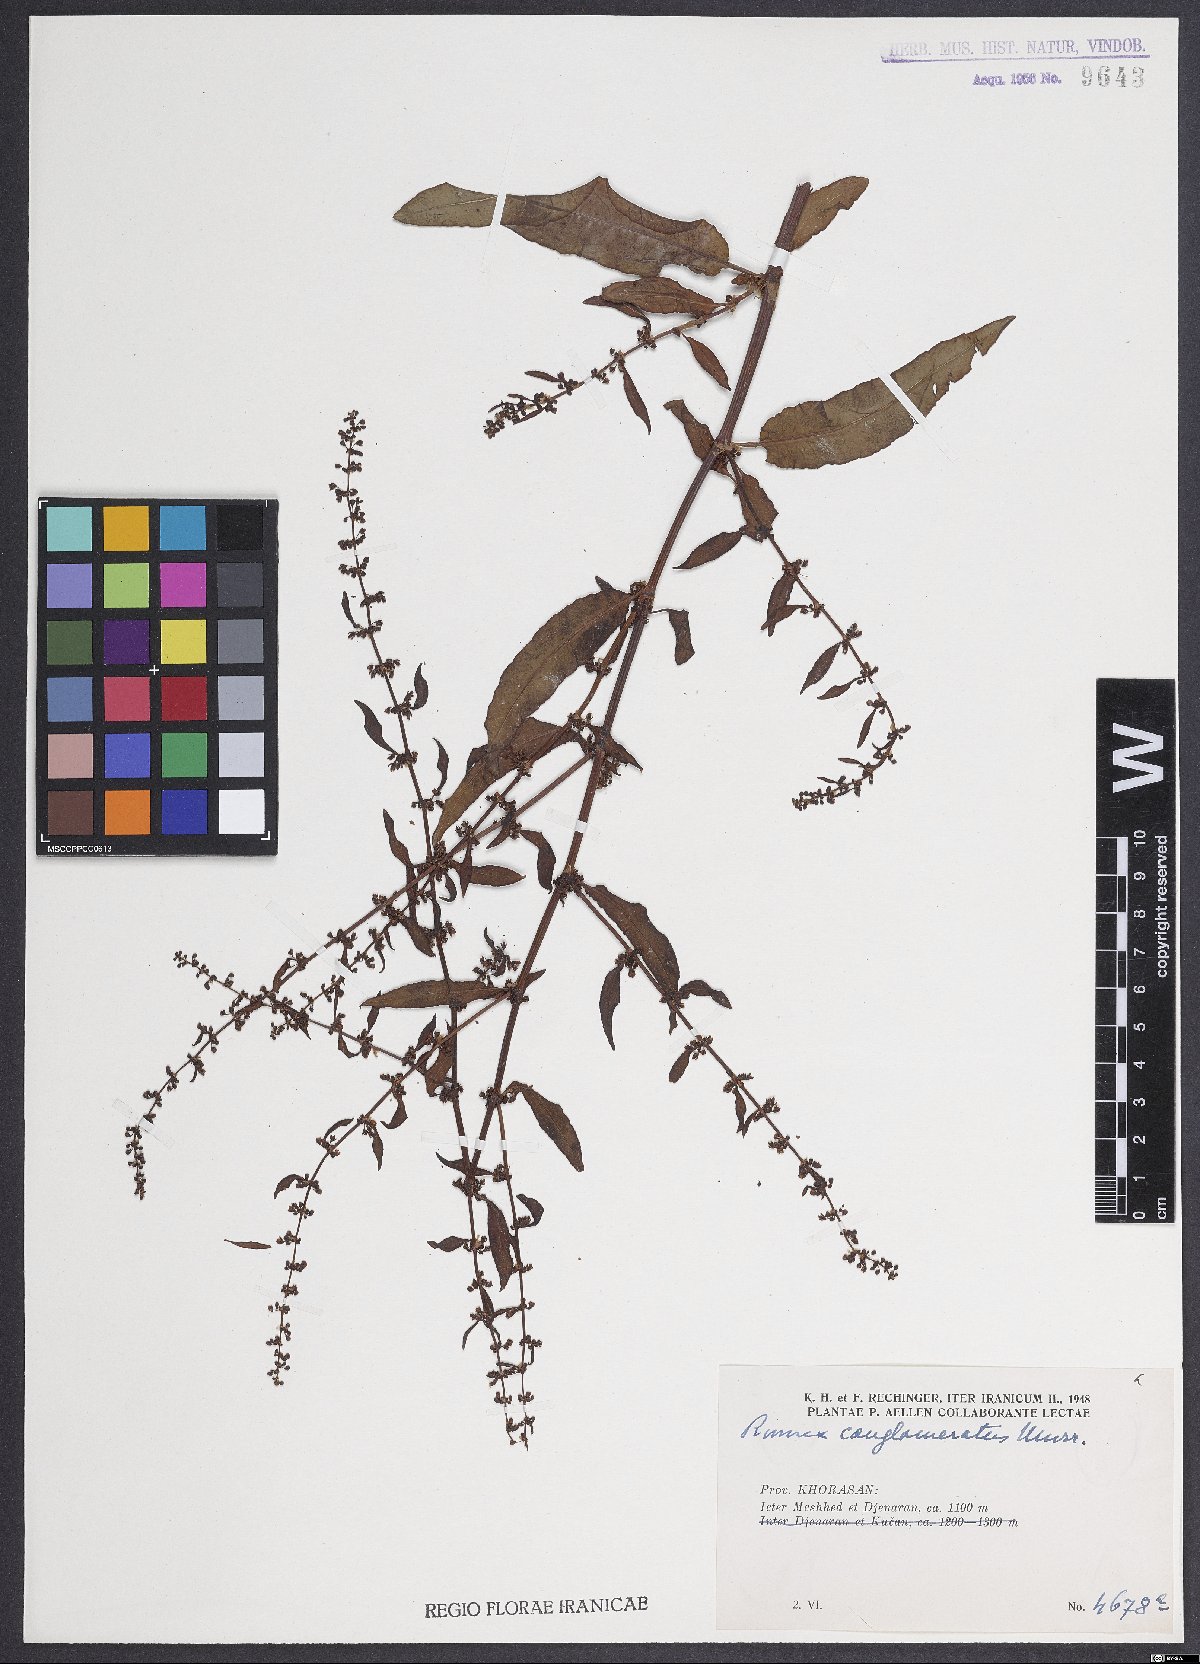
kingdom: Plantae
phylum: Tracheophyta
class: Magnoliopsida
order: Caryophyllales
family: Polygonaceae
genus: Rumex
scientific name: Rumex conglomeratus
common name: Clustered dock
